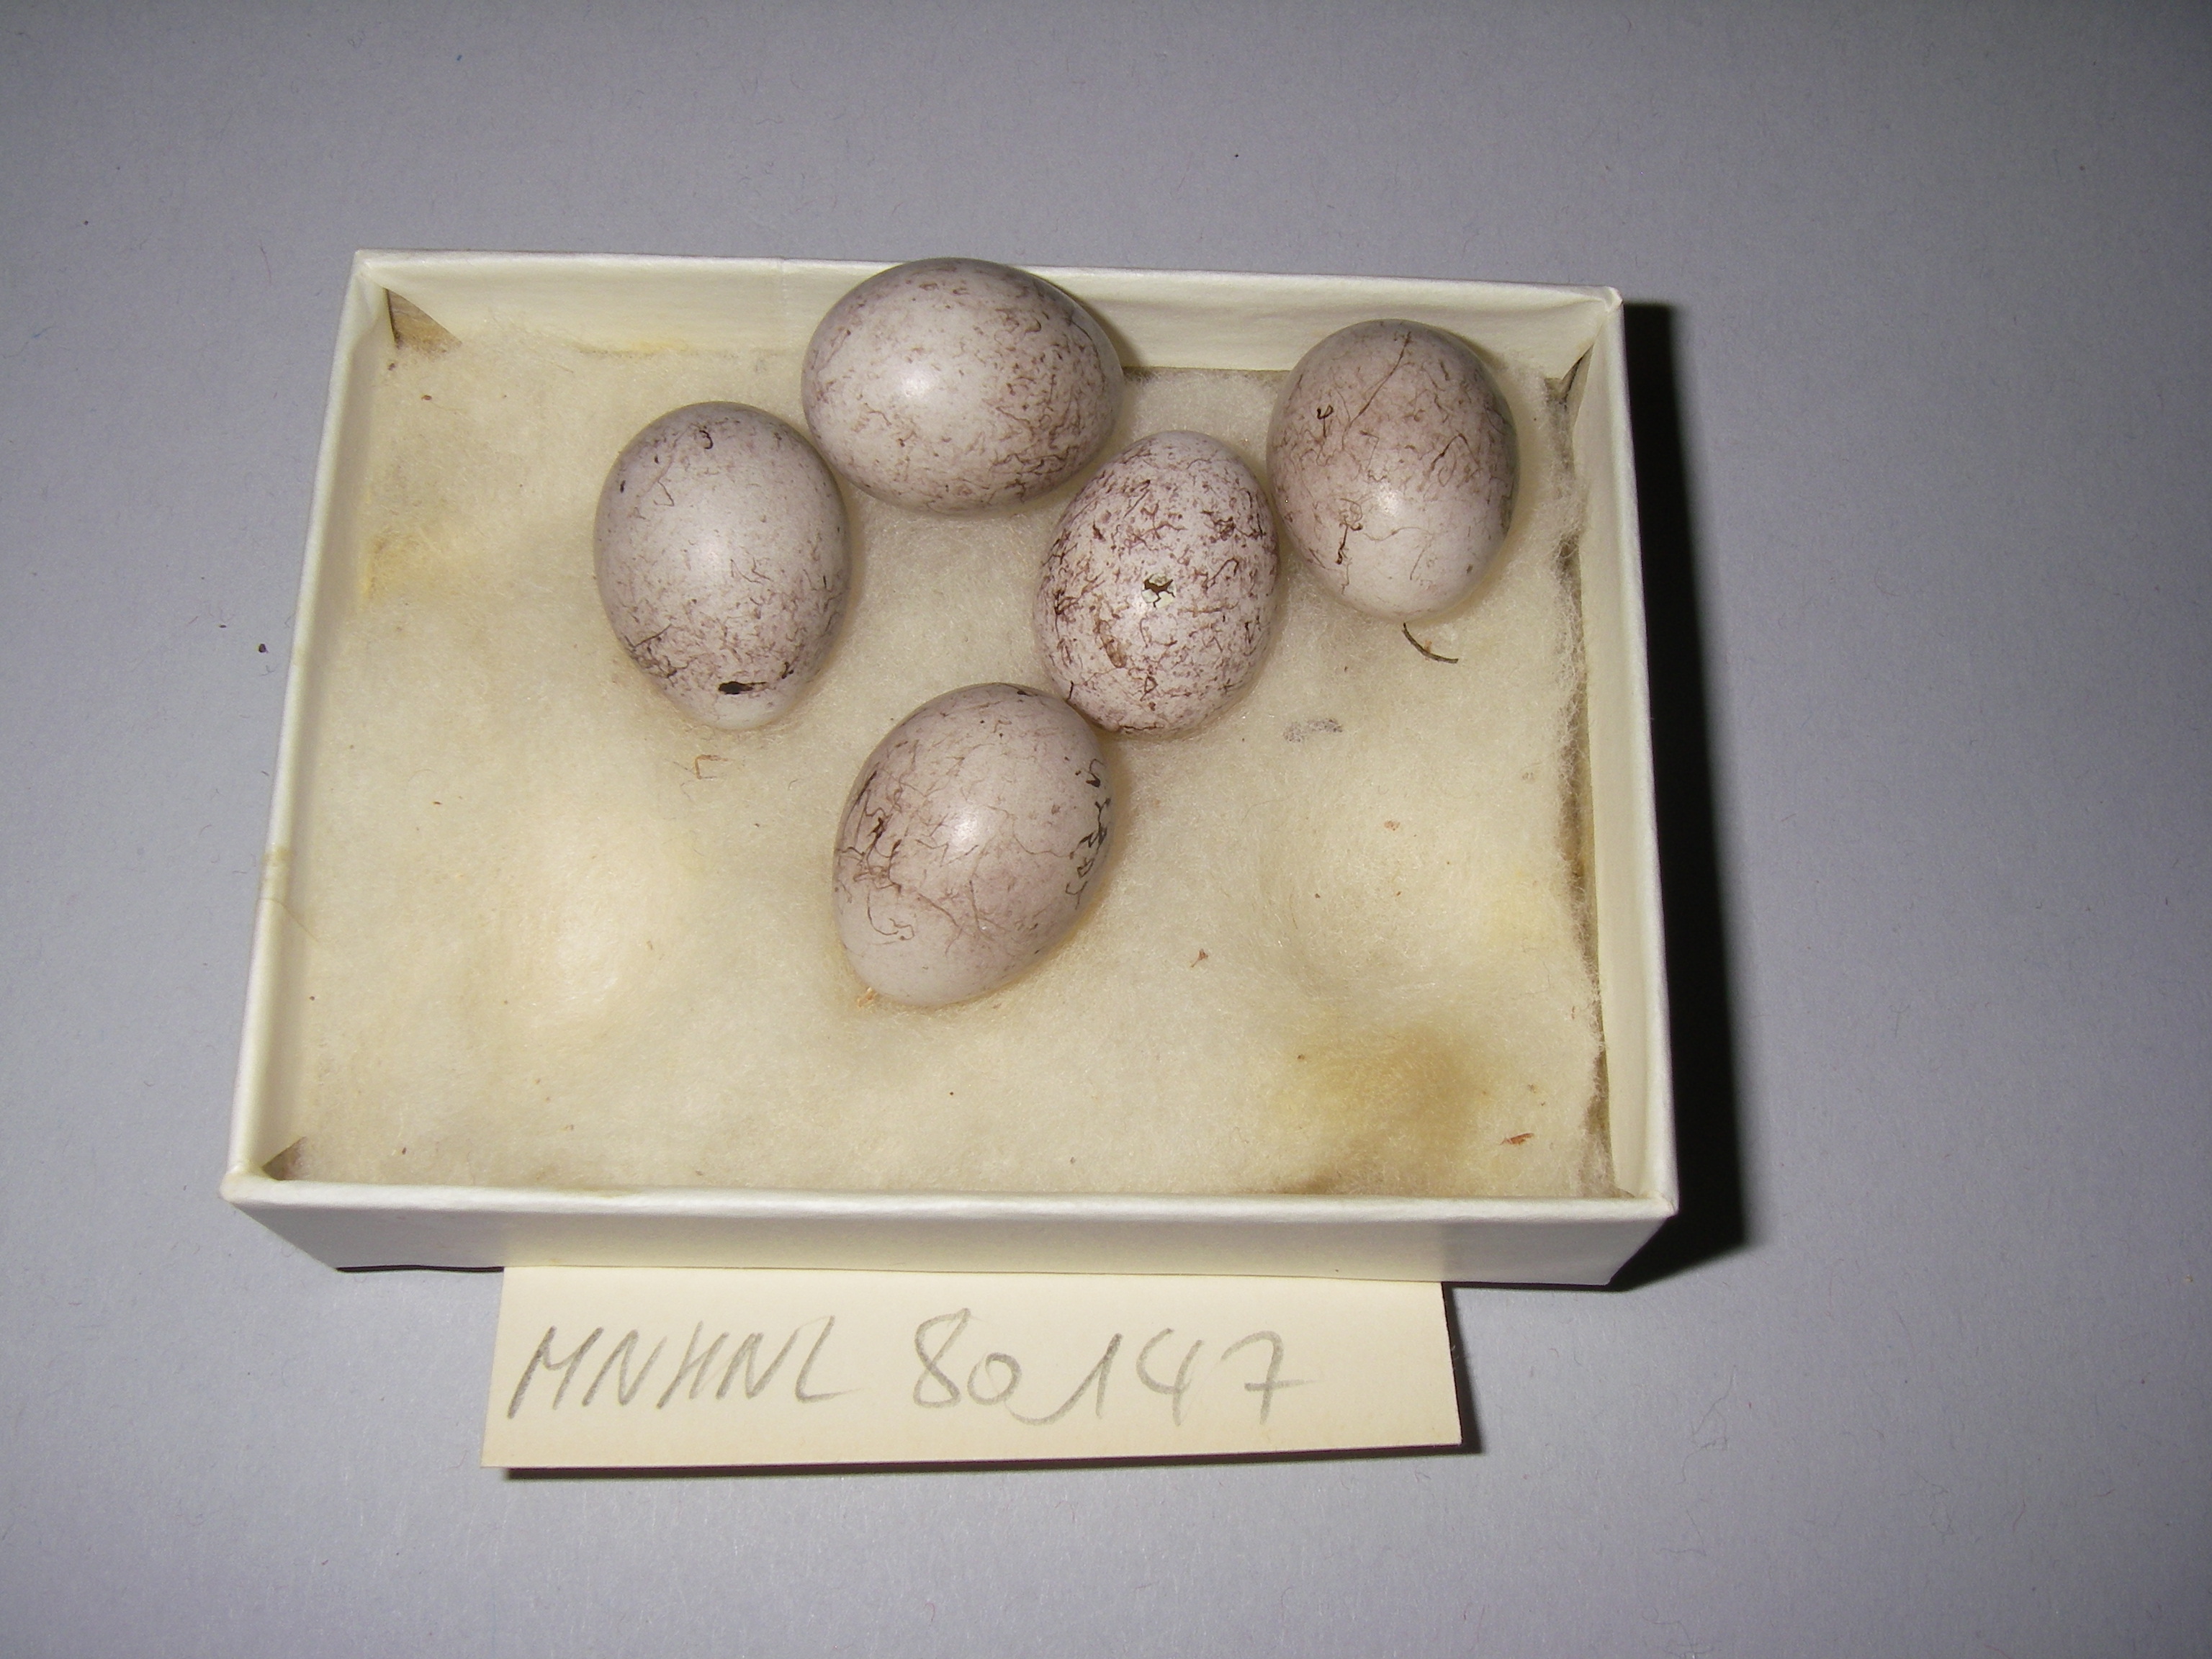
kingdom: Animalia
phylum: Chordata
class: Aves
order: Passeriformes
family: Emberizidae
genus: Emberiza
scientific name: Emberiza citrinella
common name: Yellowhammer
